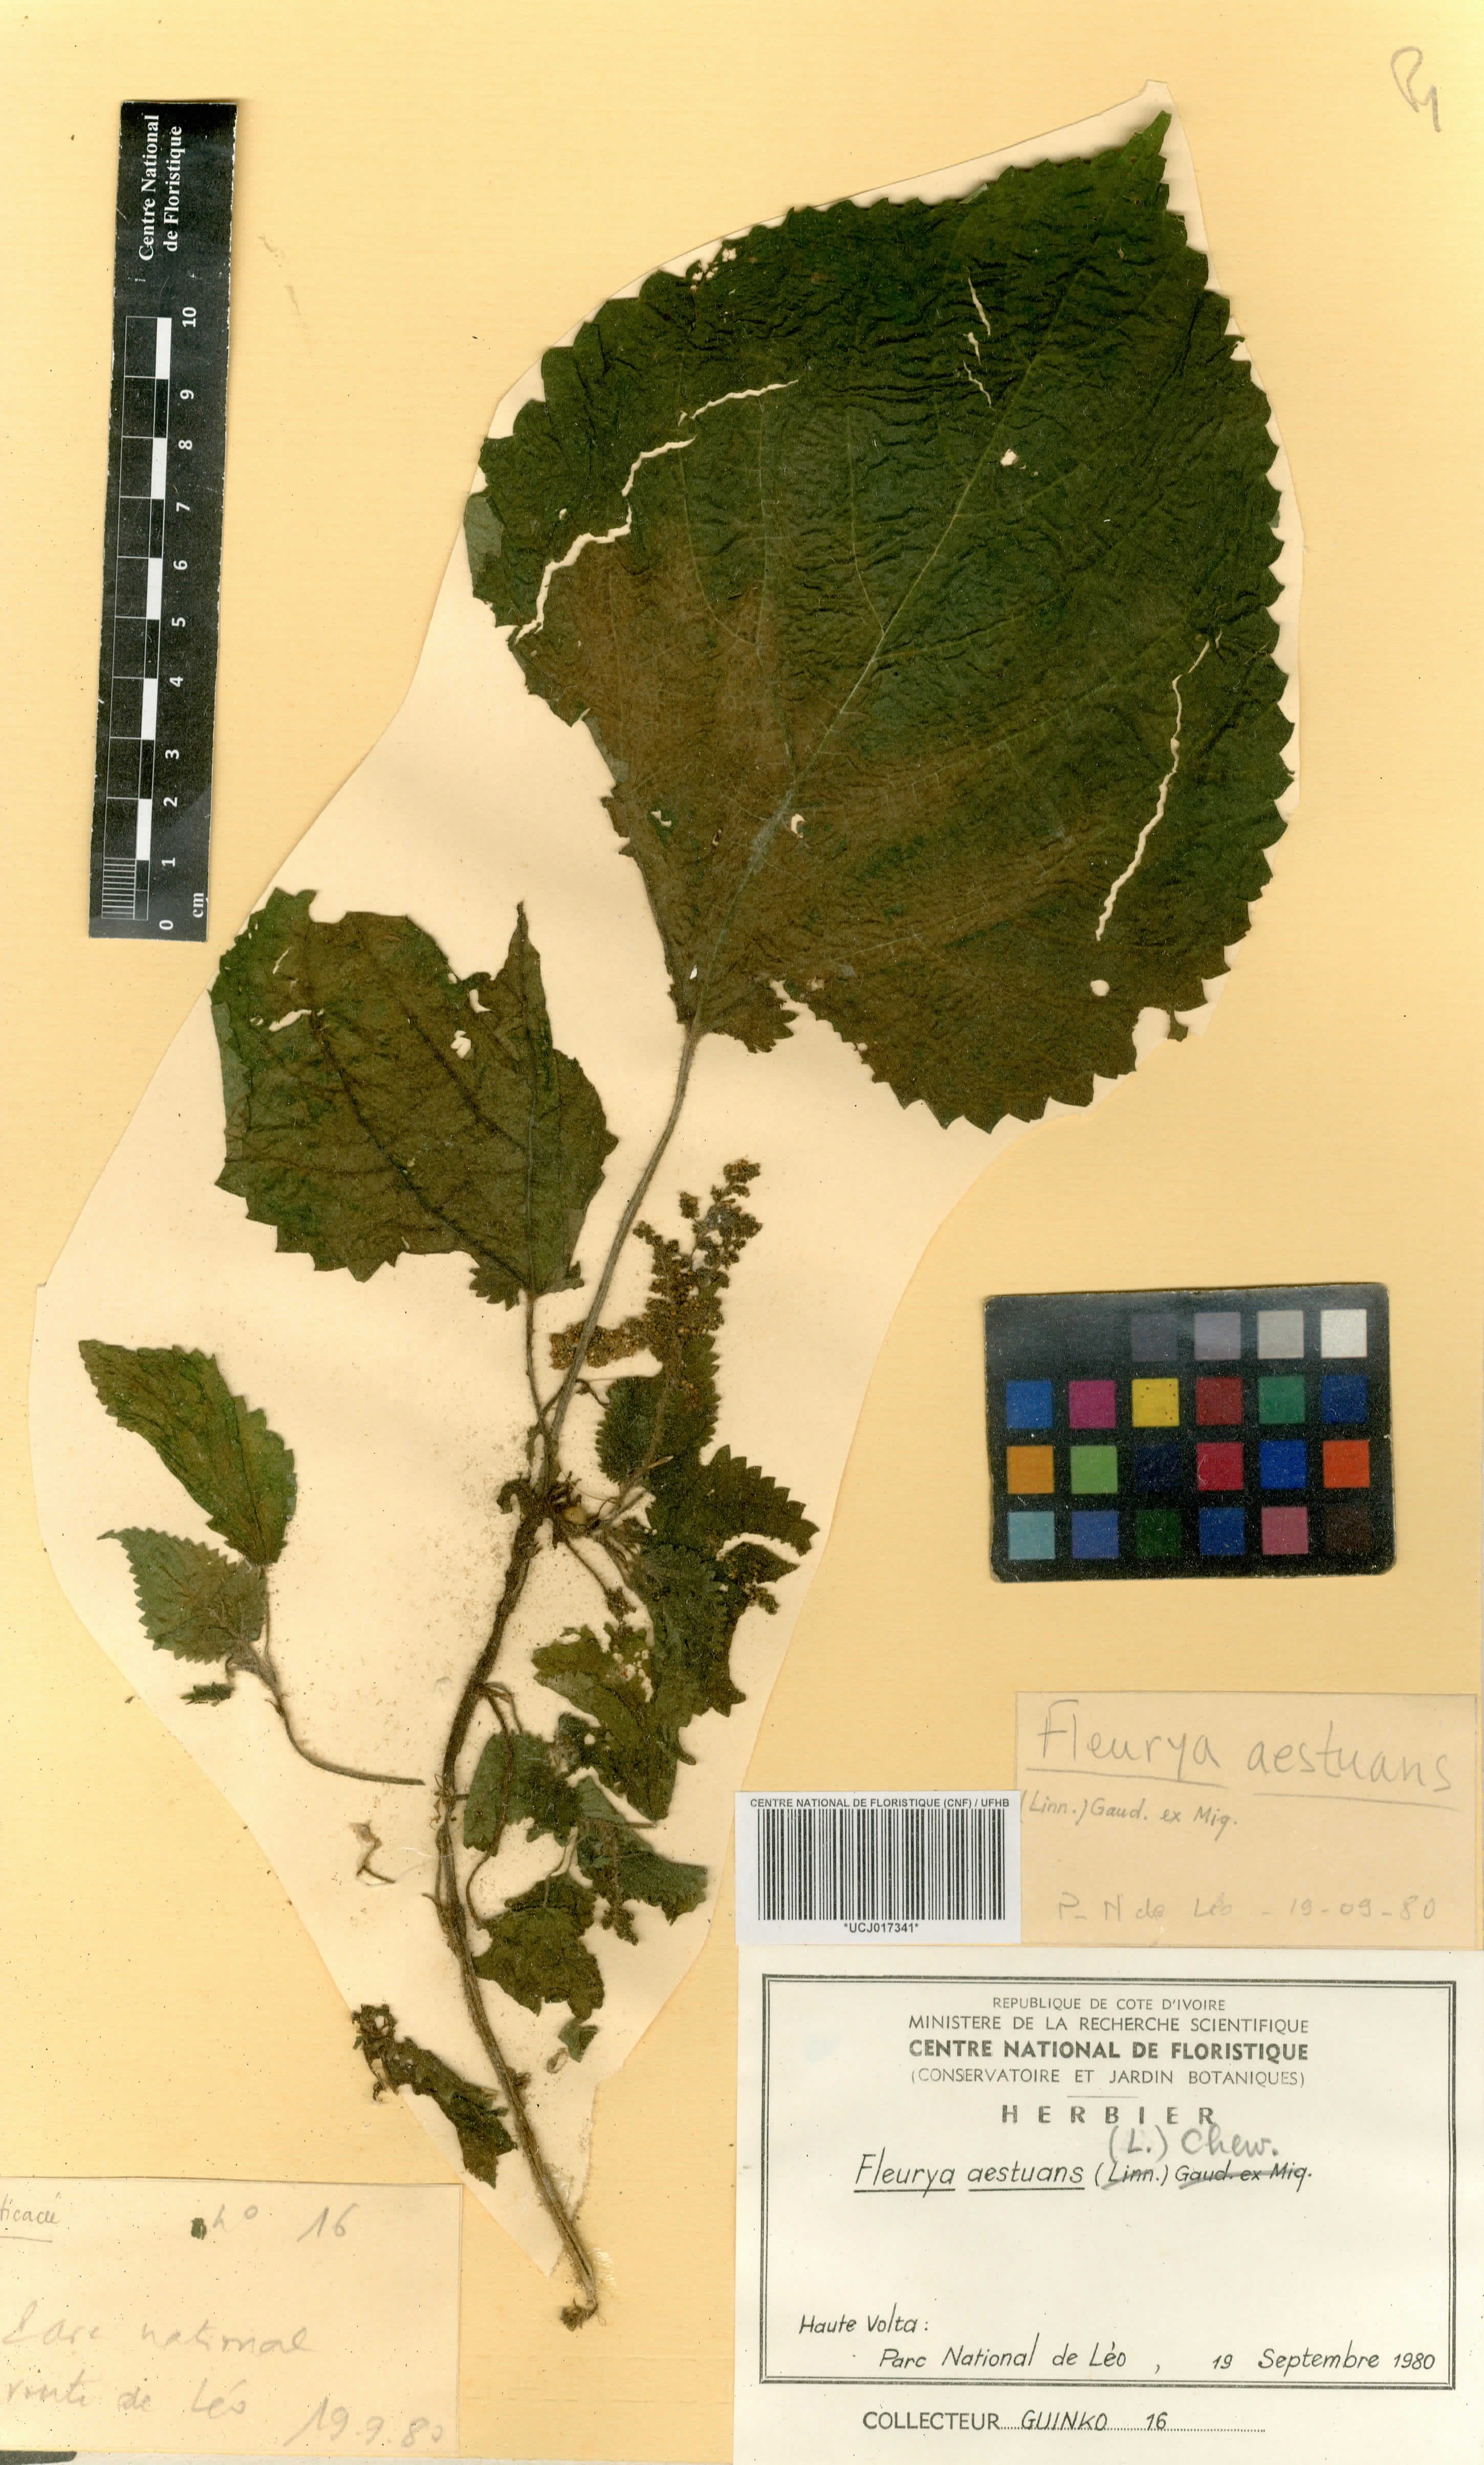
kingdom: Plantae
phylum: Tracheophyta
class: Magnoliopsida
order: Rosales
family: Urticaceae
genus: Laportea
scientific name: Laportea aestuans
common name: West indian woodnettle
